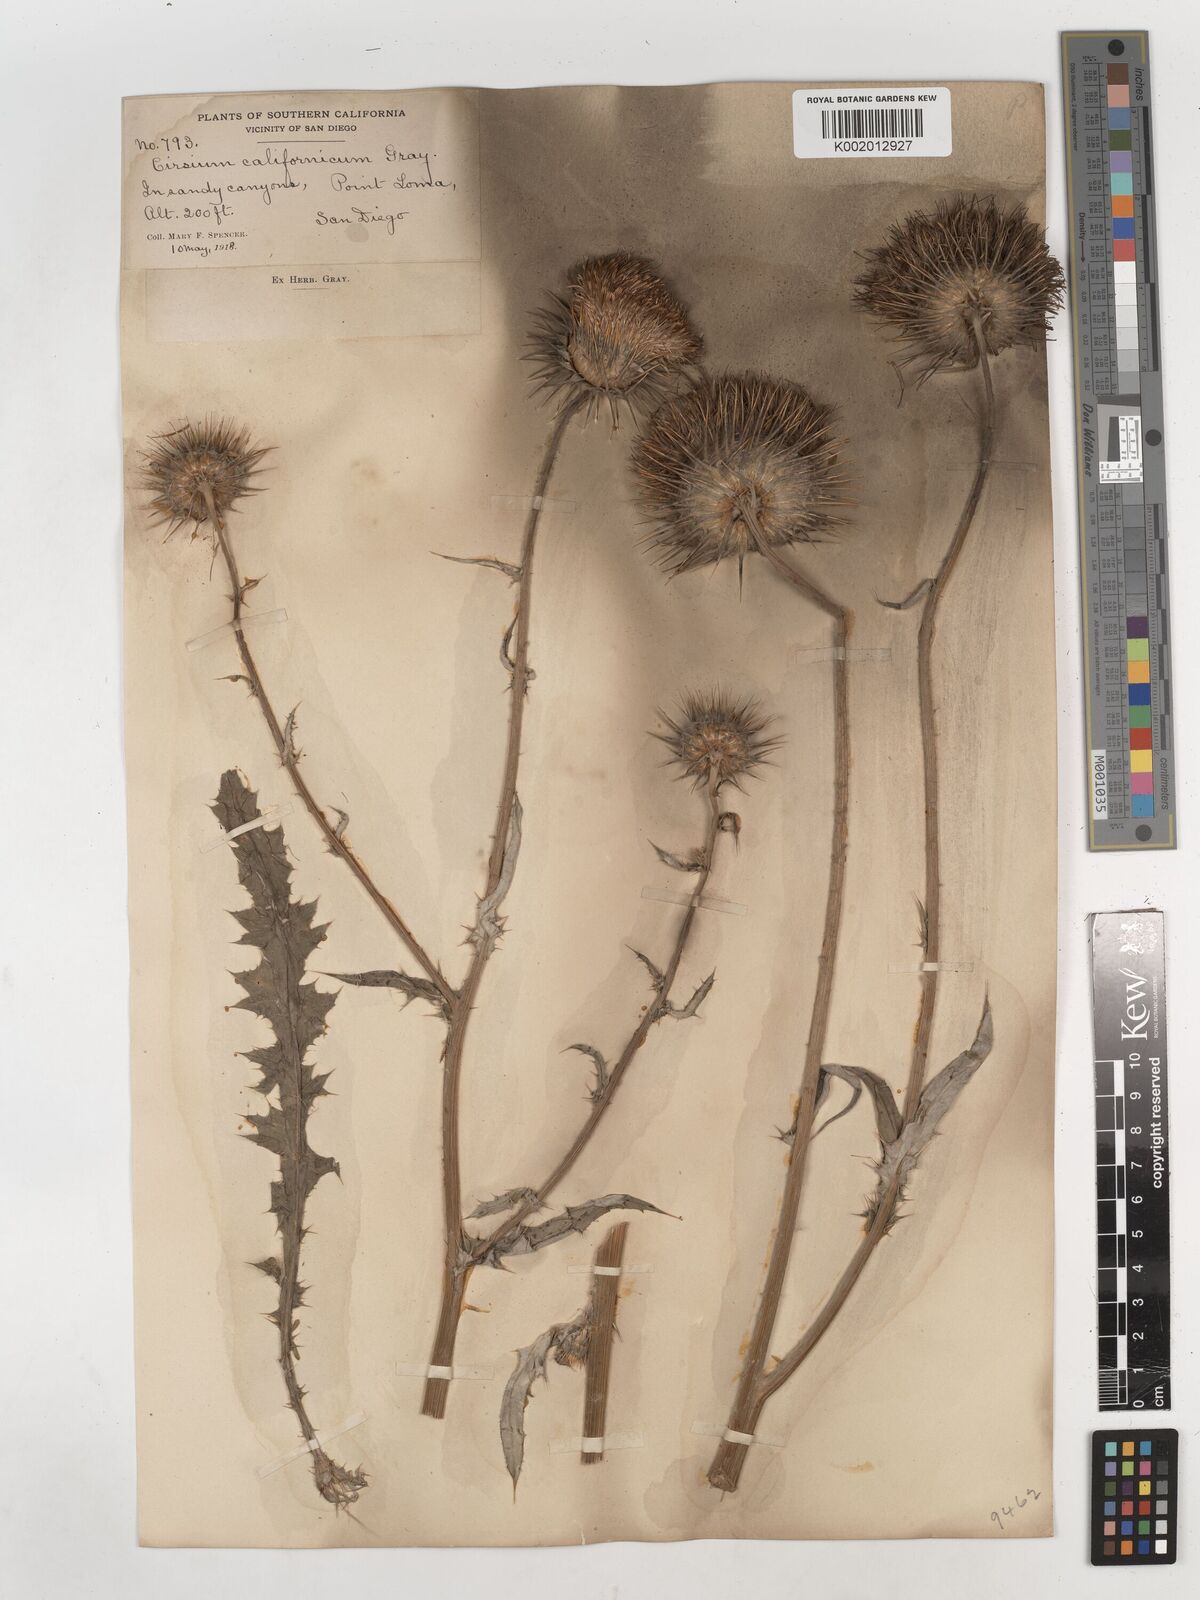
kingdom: Plantae
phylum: Tracheophyta
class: Magnoliopsida
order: Asterales
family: Asteraceae
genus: Cirsium
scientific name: Cirsium occidentale
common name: Western thistle
